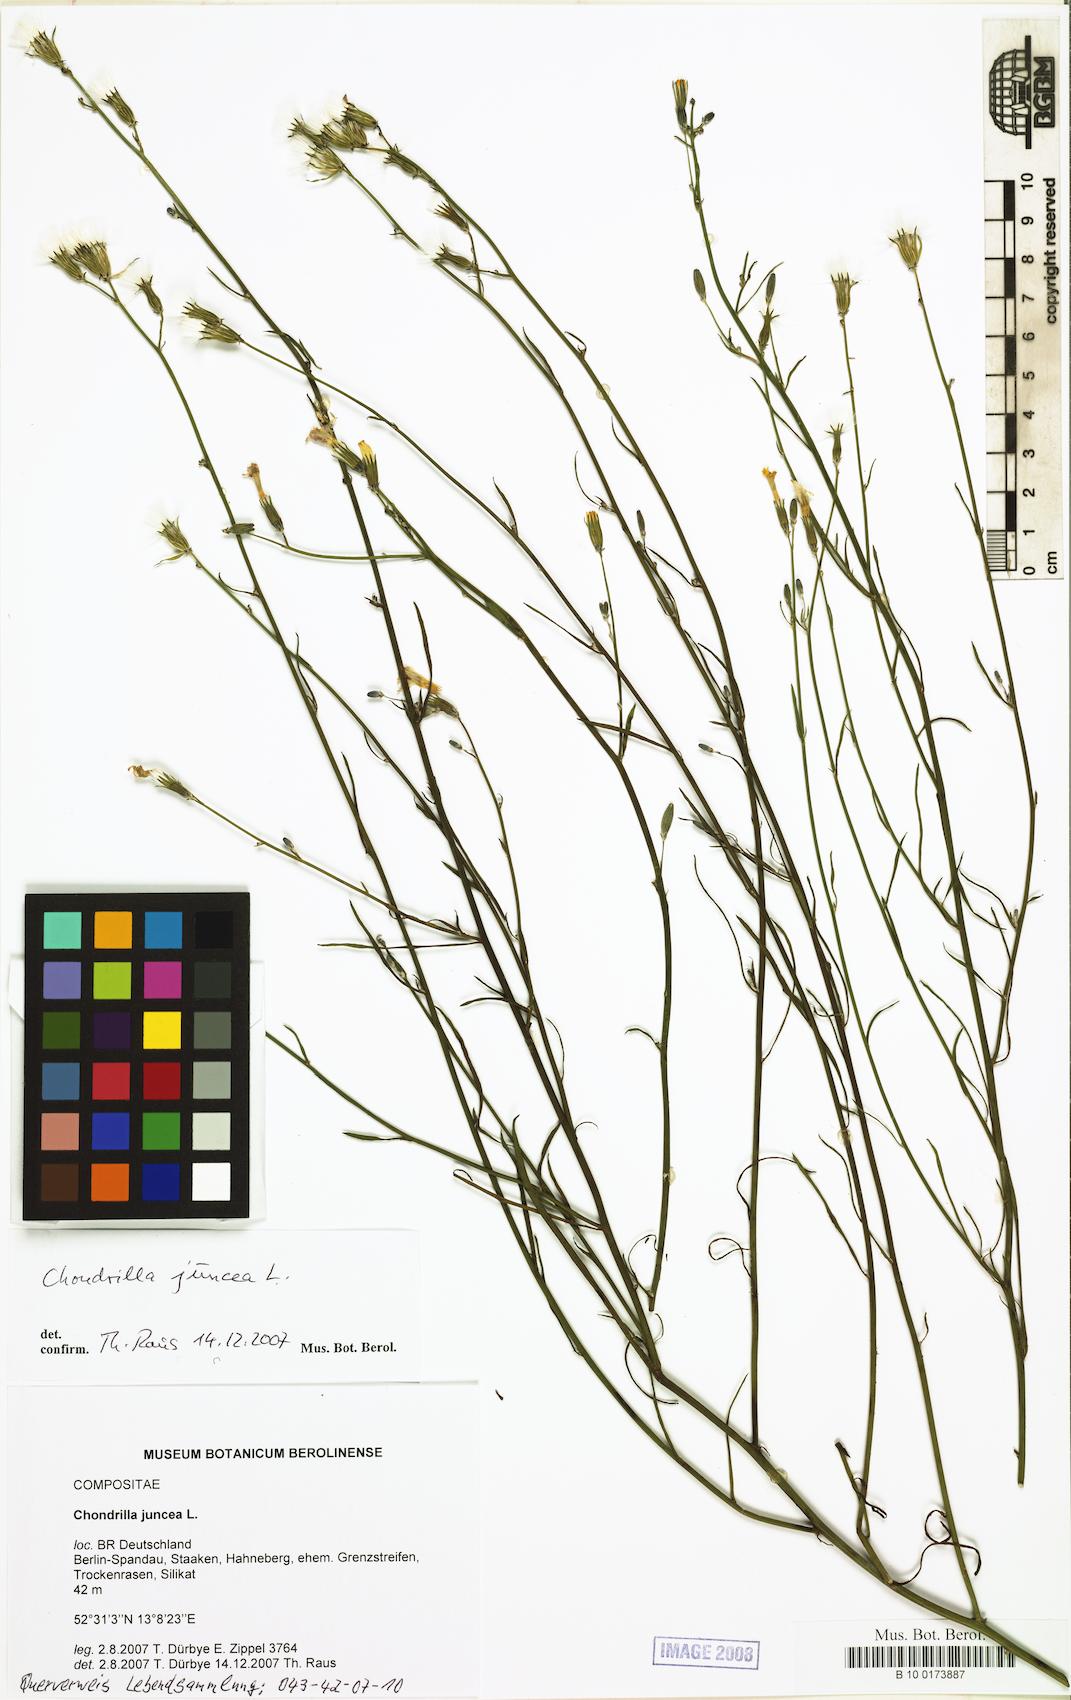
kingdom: Plantae
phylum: Tracheophyta
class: Magnoliopsida
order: Asterales
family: Asteraceae
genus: Chondrilla
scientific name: Chondrilla juncea
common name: Skeleton weed
